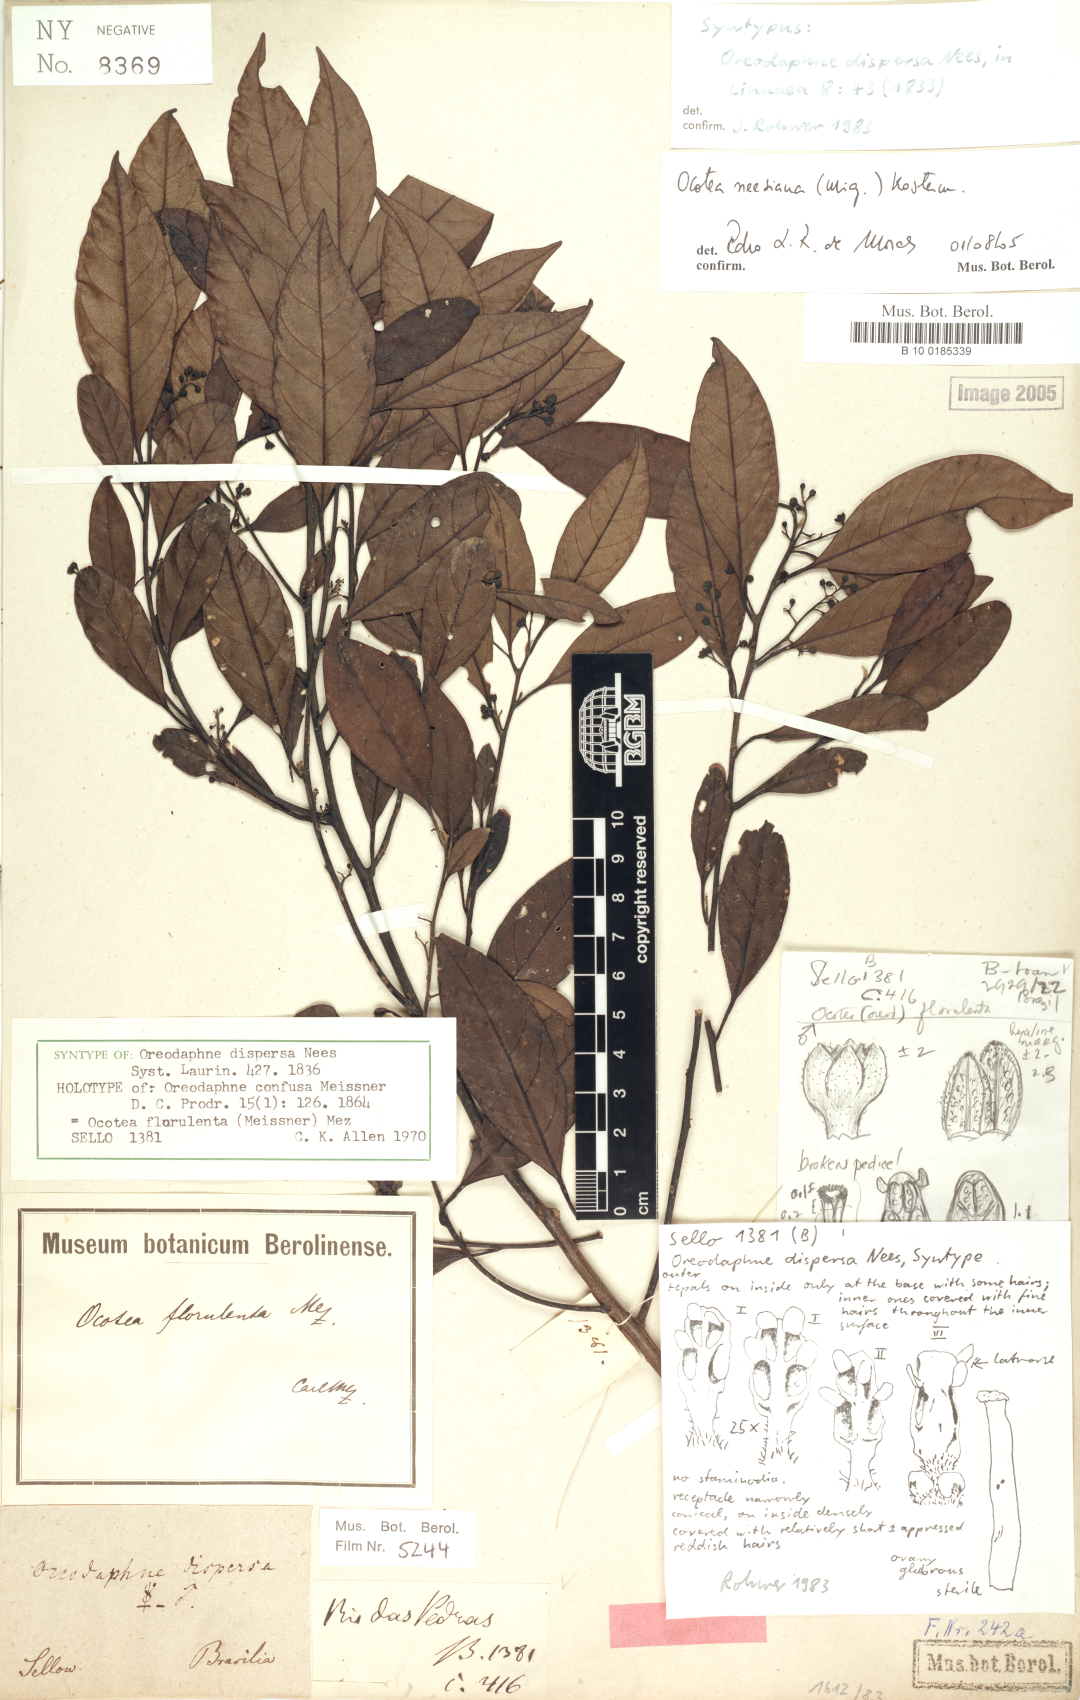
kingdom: Plantae
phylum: Tracheophyta
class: Magnoliopsida
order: Laurales
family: Lauraceae
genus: Ocotea
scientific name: Ocotea neesiana
